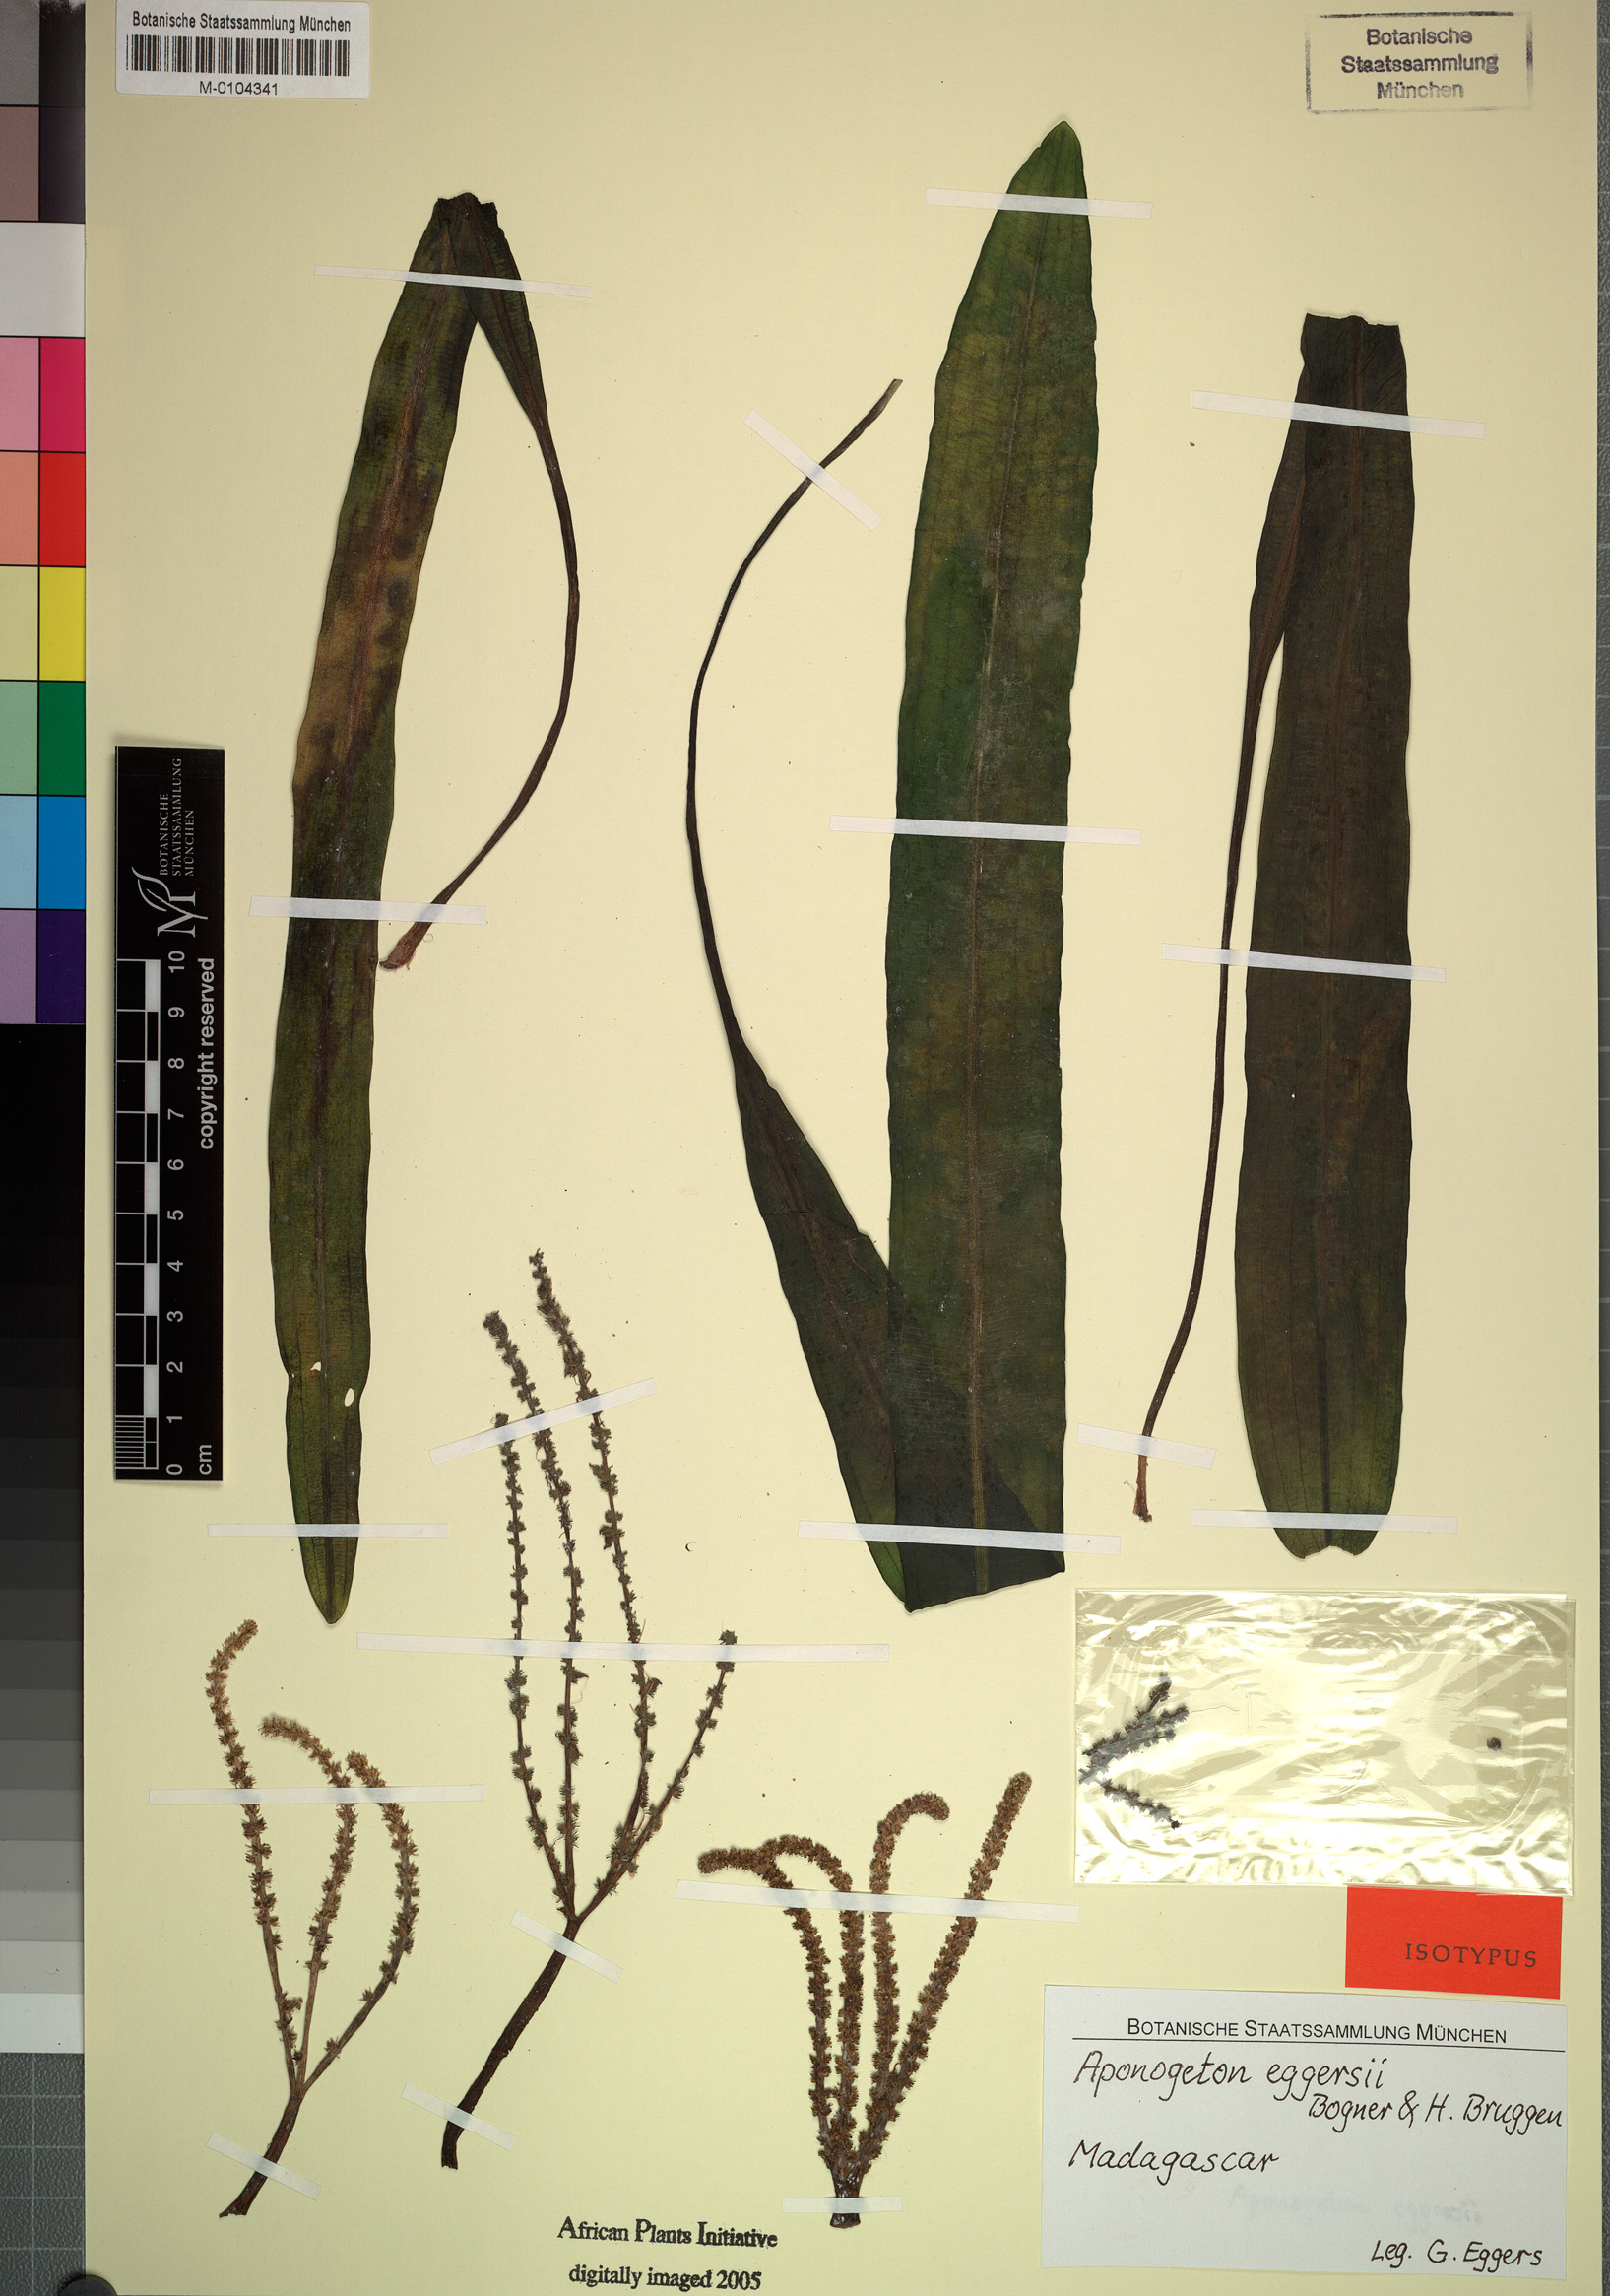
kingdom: Plantae
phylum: Tracheophyta
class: Liliopsida
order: Alismatales
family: Aponogetonaceae
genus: Aponogeton
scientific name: Aponogeton eggersii
